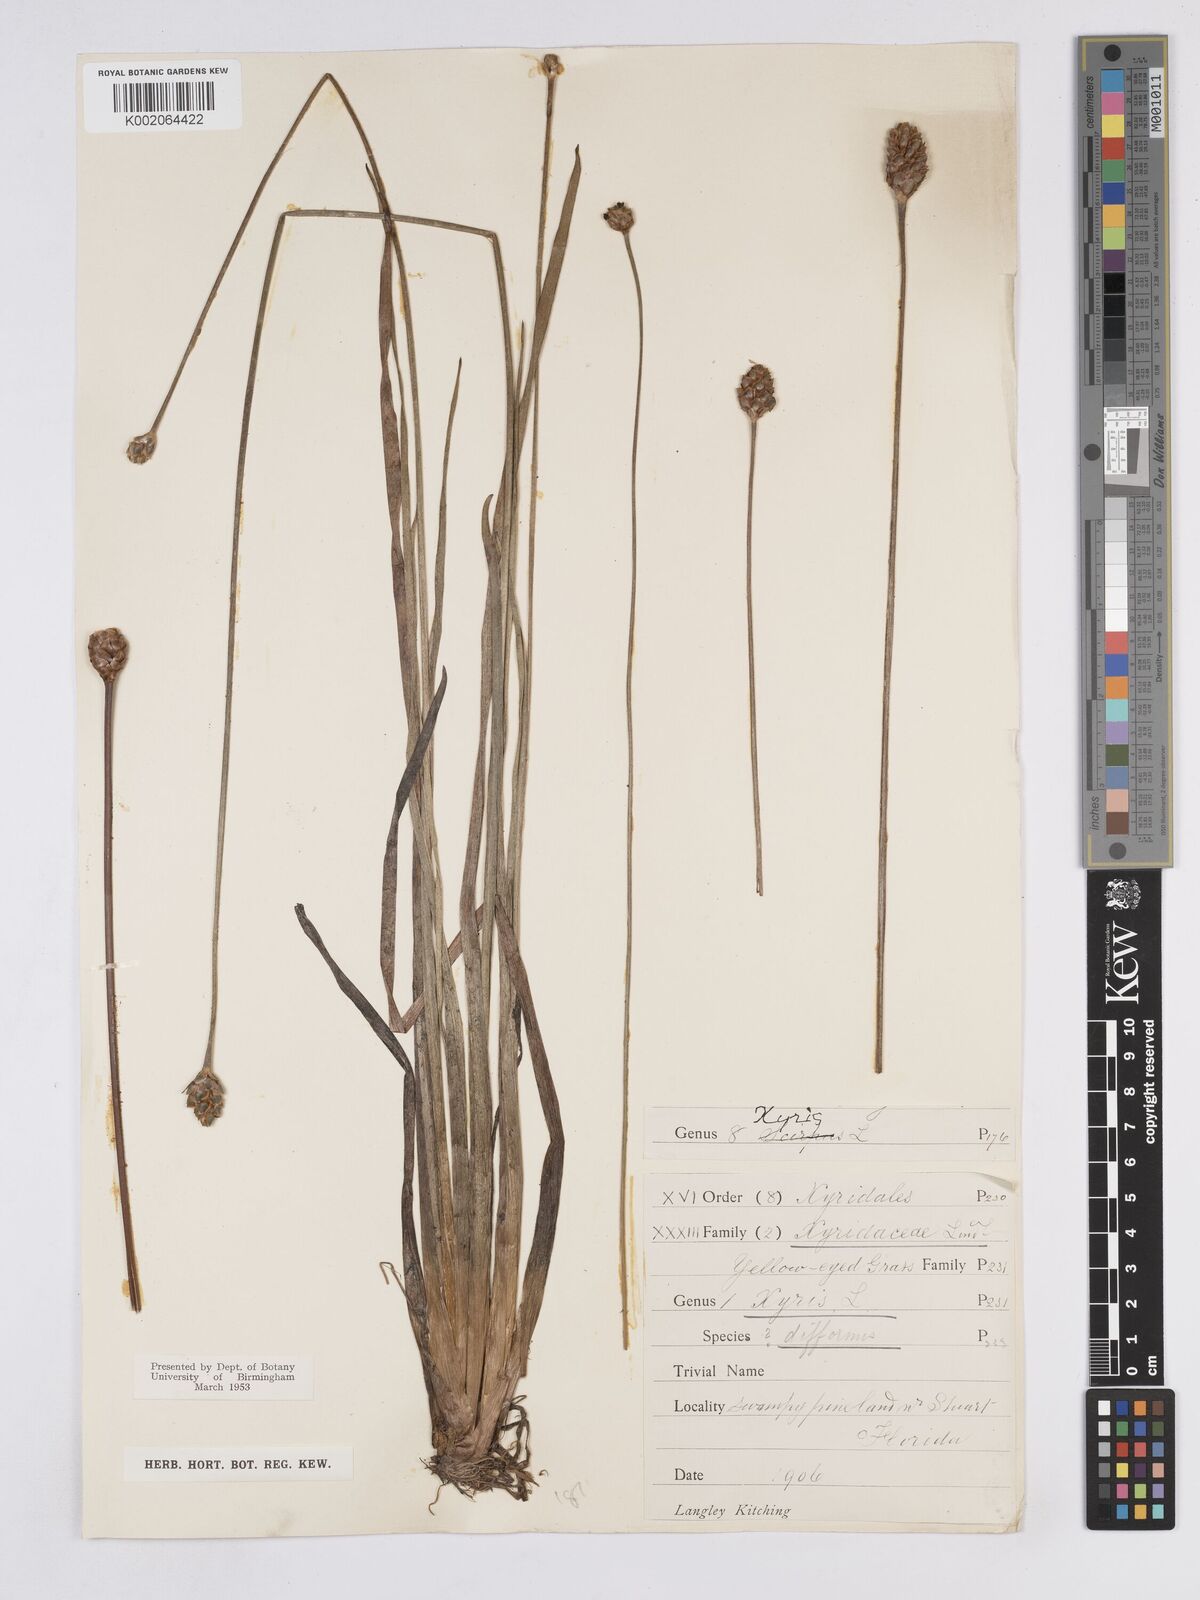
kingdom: Plantae
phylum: Tracheophyta
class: Liliopsida
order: Poales
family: Xyridaceae
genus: Xyris
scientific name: Xyris difformis
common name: Bog yellow-eyed-grass
